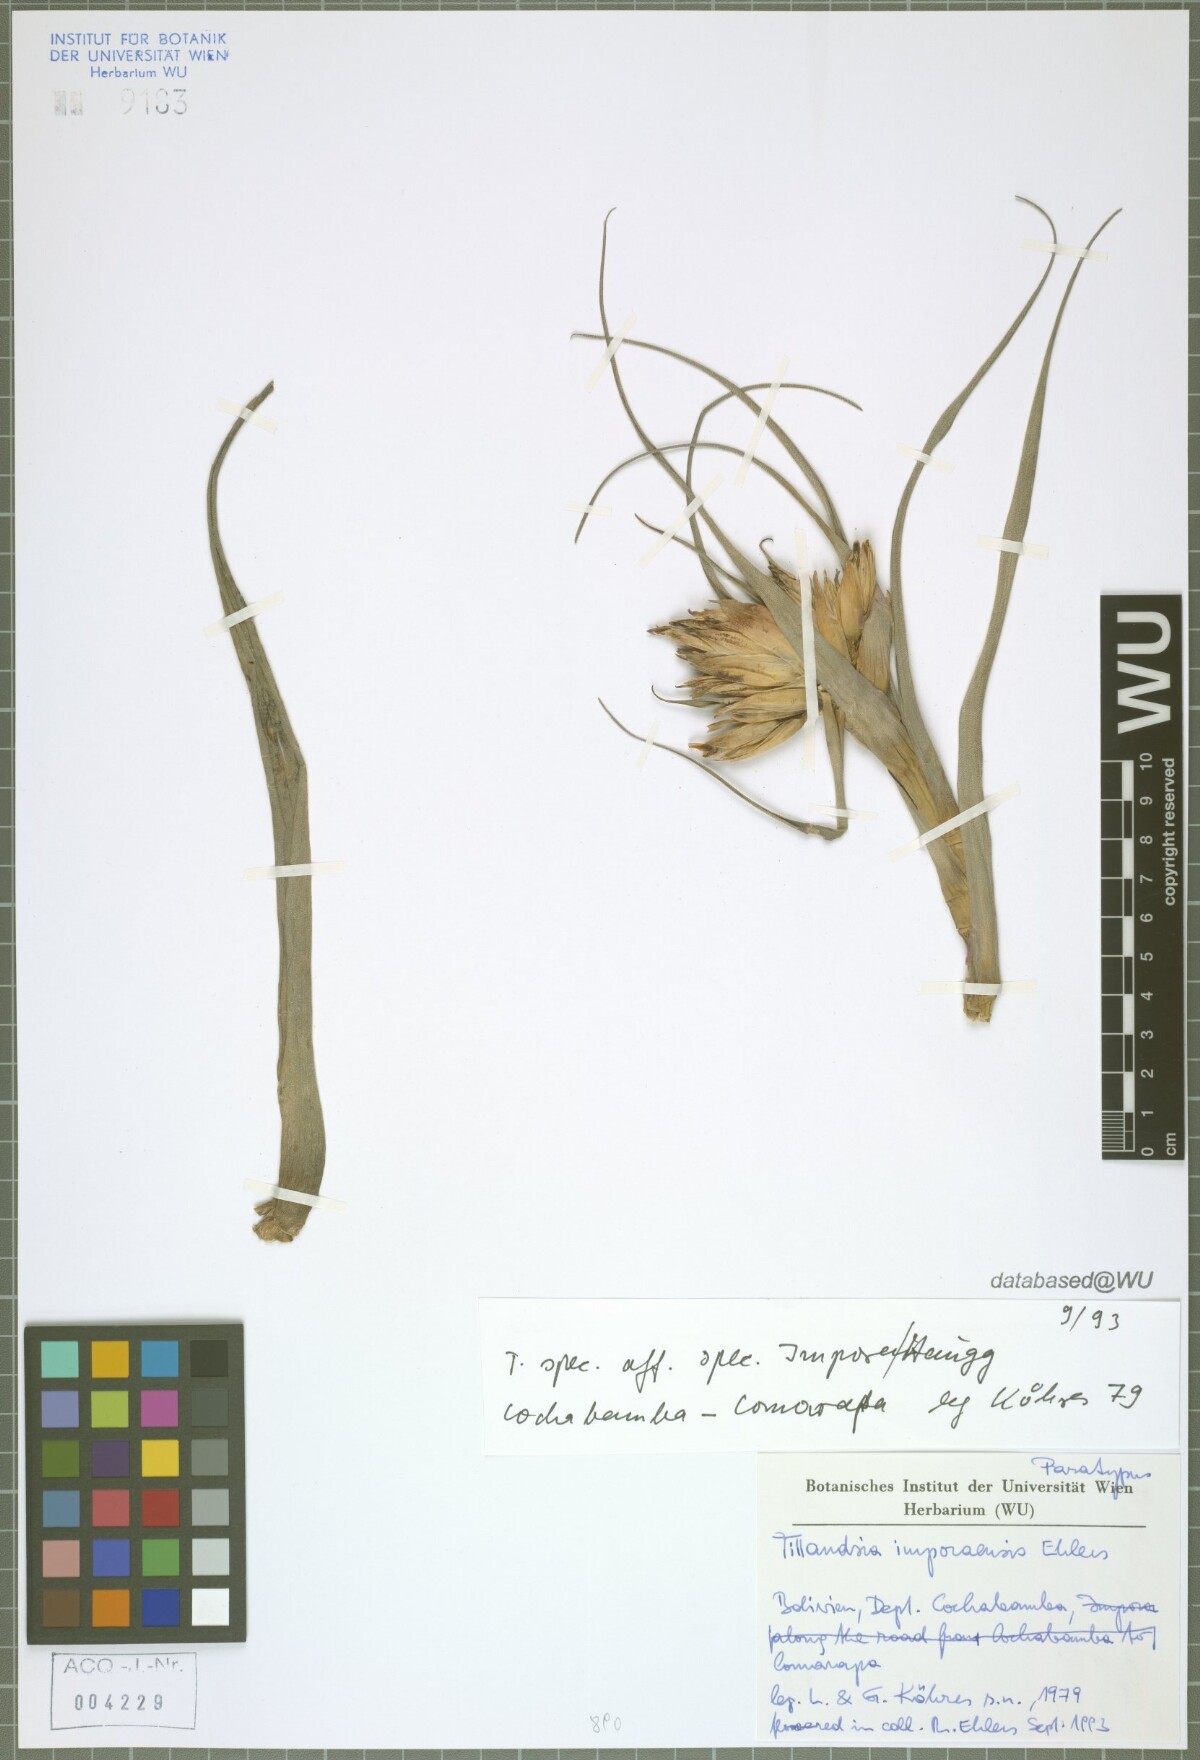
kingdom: Plantae
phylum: Tracheophyta
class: Liliopsida
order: Poales
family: Bromeliaceae
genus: Tillandsia
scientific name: Tillandsia imporaensis
